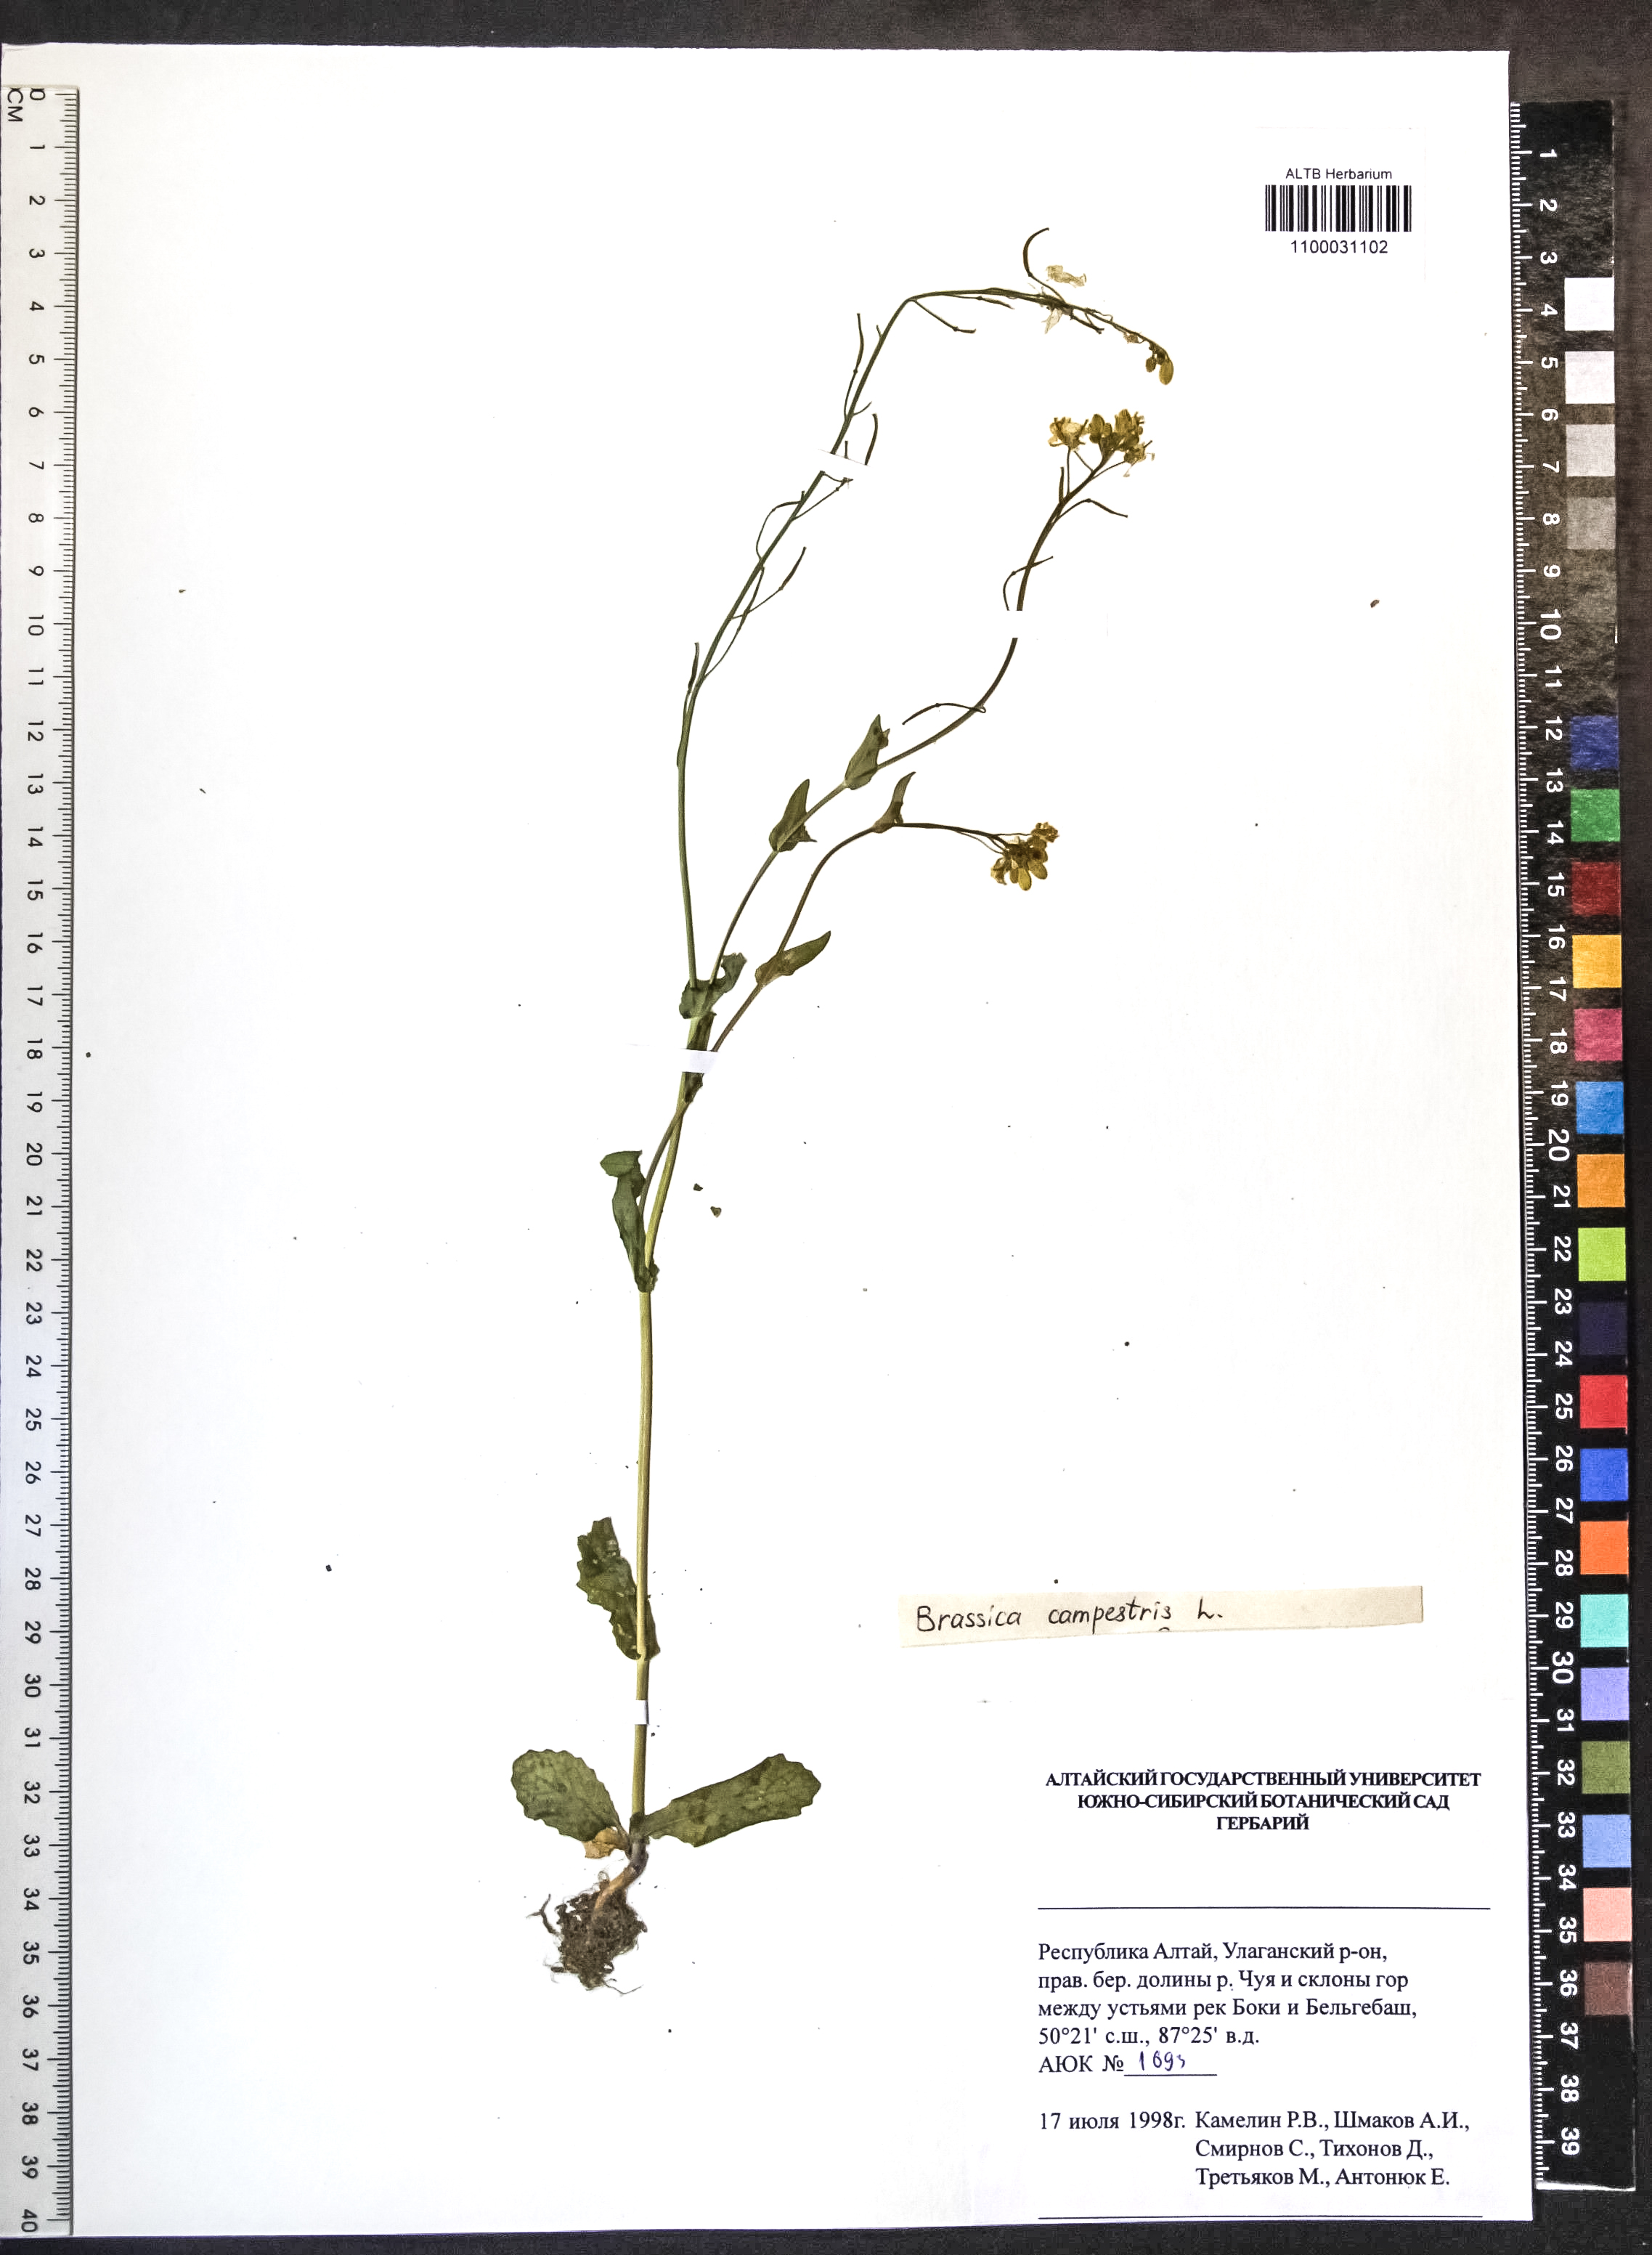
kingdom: Plantae
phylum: Tracheophyta
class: Magnoliopsida
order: Brassicales
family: Brassicaceae
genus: Brassica
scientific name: Brassica rapa
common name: Field mustard
